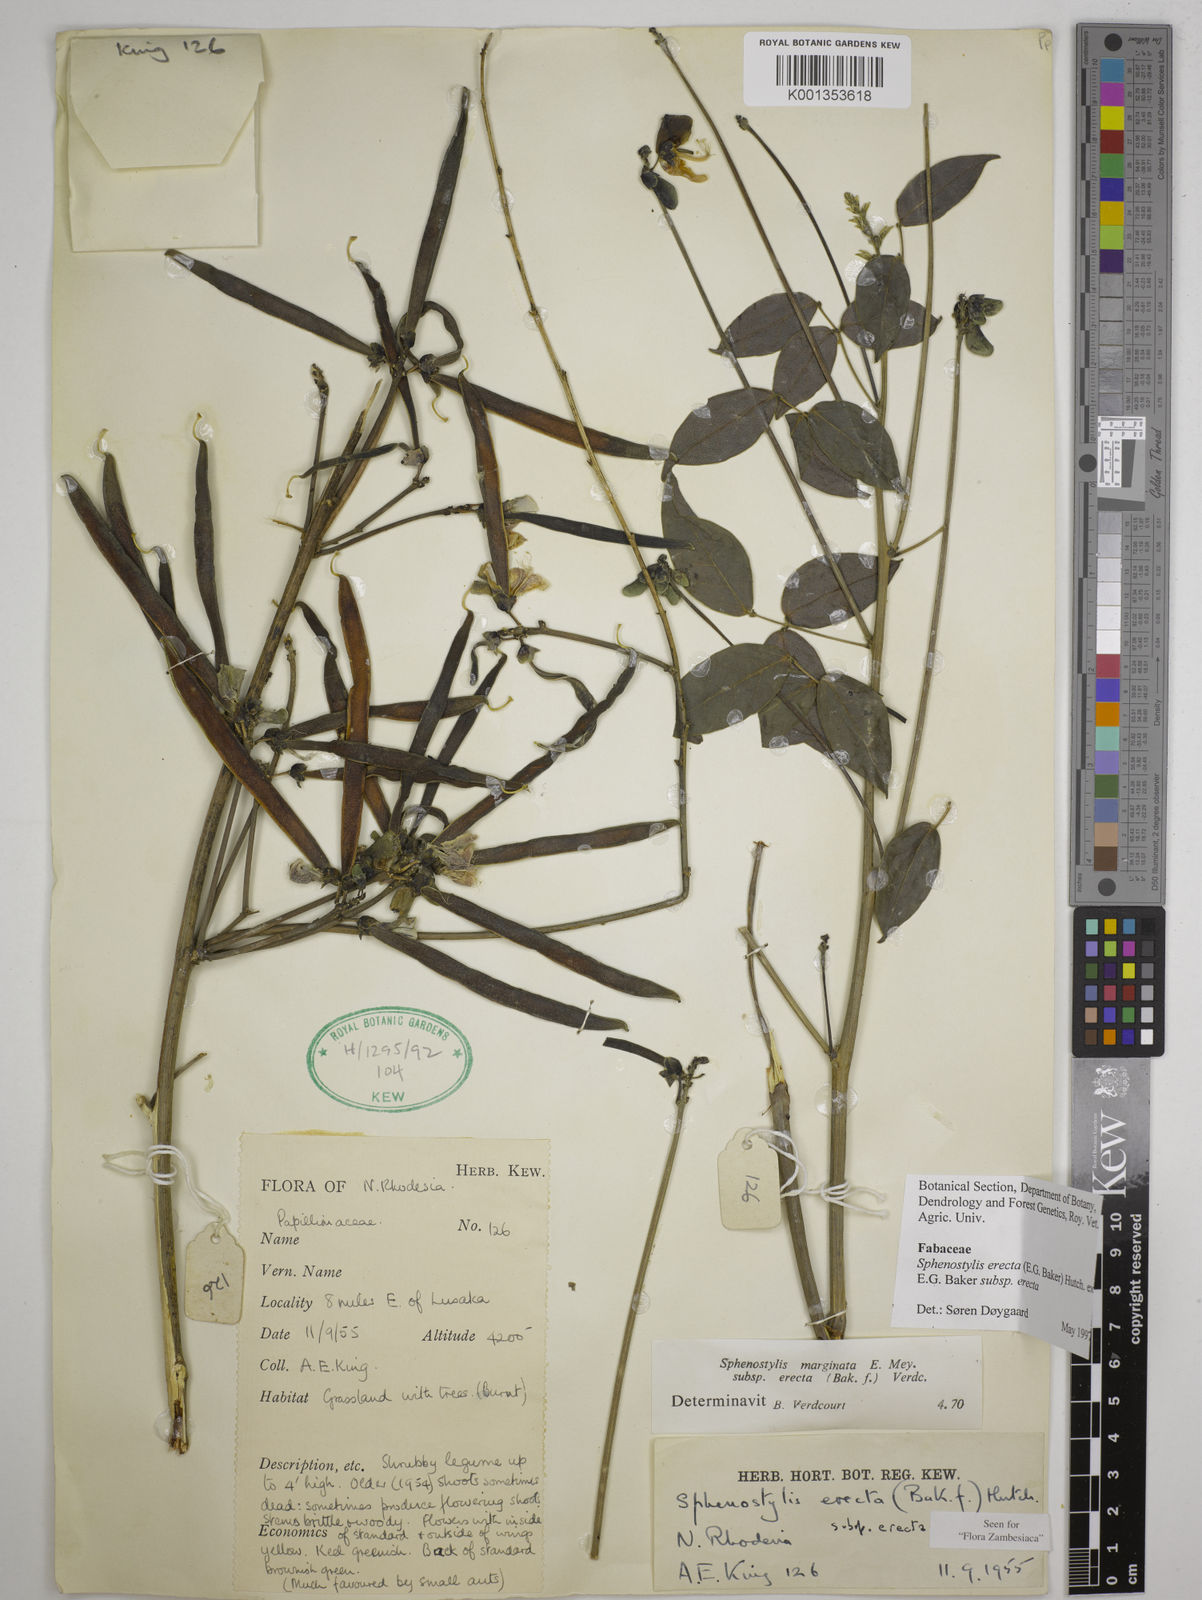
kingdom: Plantae
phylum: Tracheophyta
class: Magnoliopsida
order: Fabales
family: Fabaceae
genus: Sphenostylis
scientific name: Sphenostylis erecta
